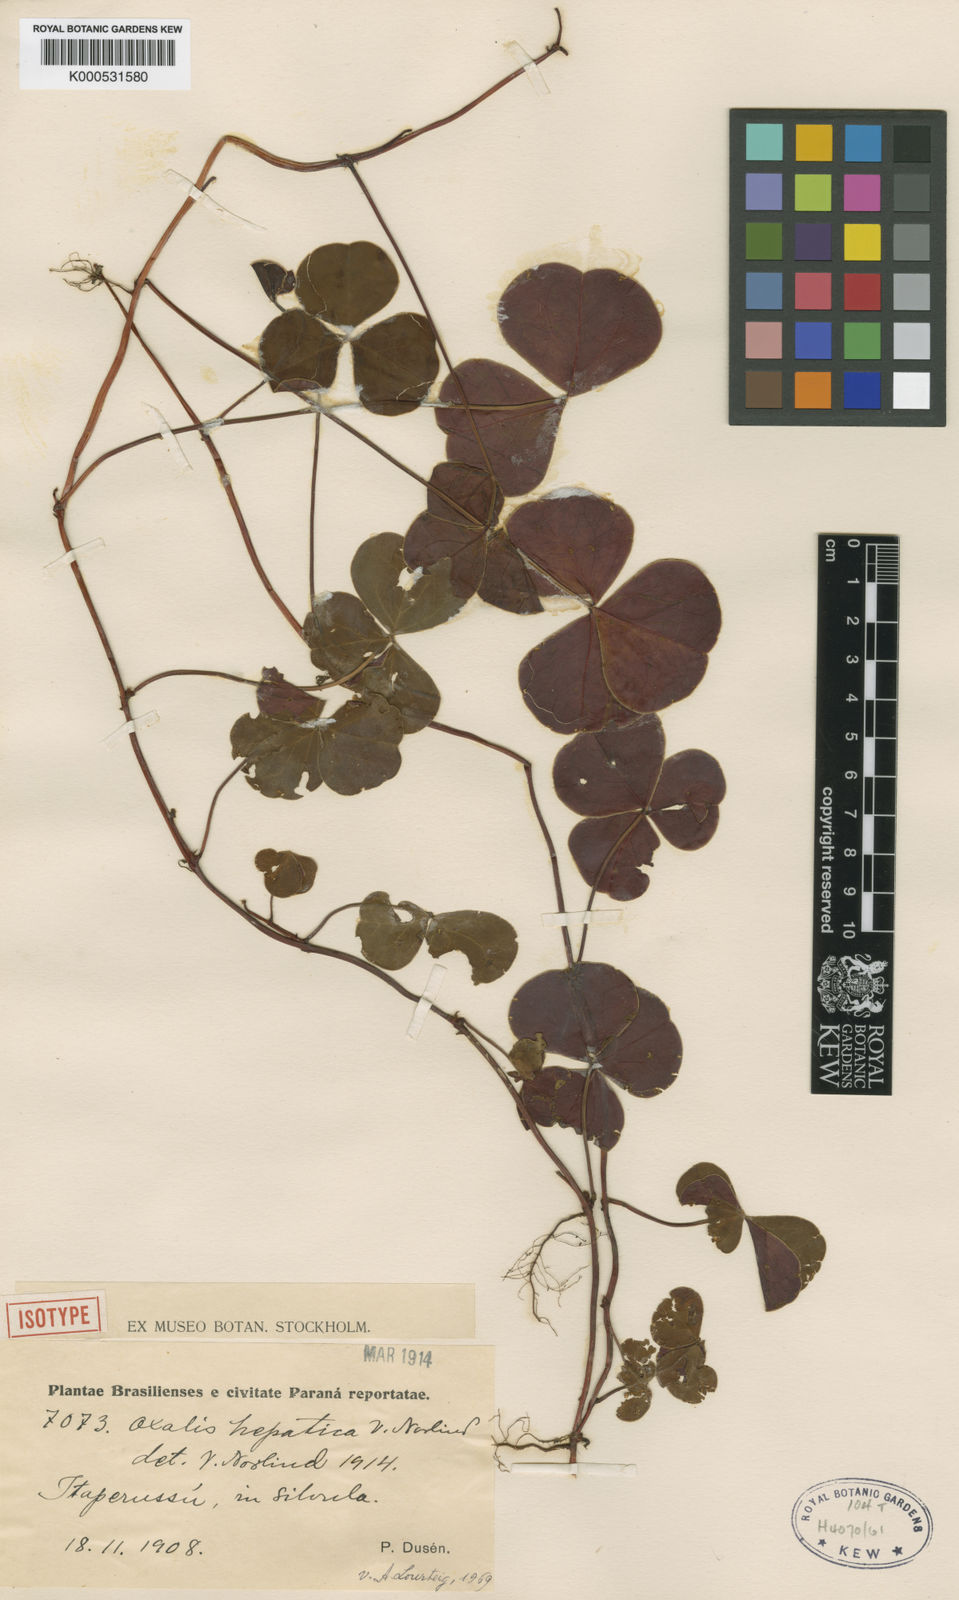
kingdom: Plantae
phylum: Tracheophyta
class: Magnoliopsida
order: Oxalidales
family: Oxalidaceae
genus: Oxalis
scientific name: Oxalis hepatica
